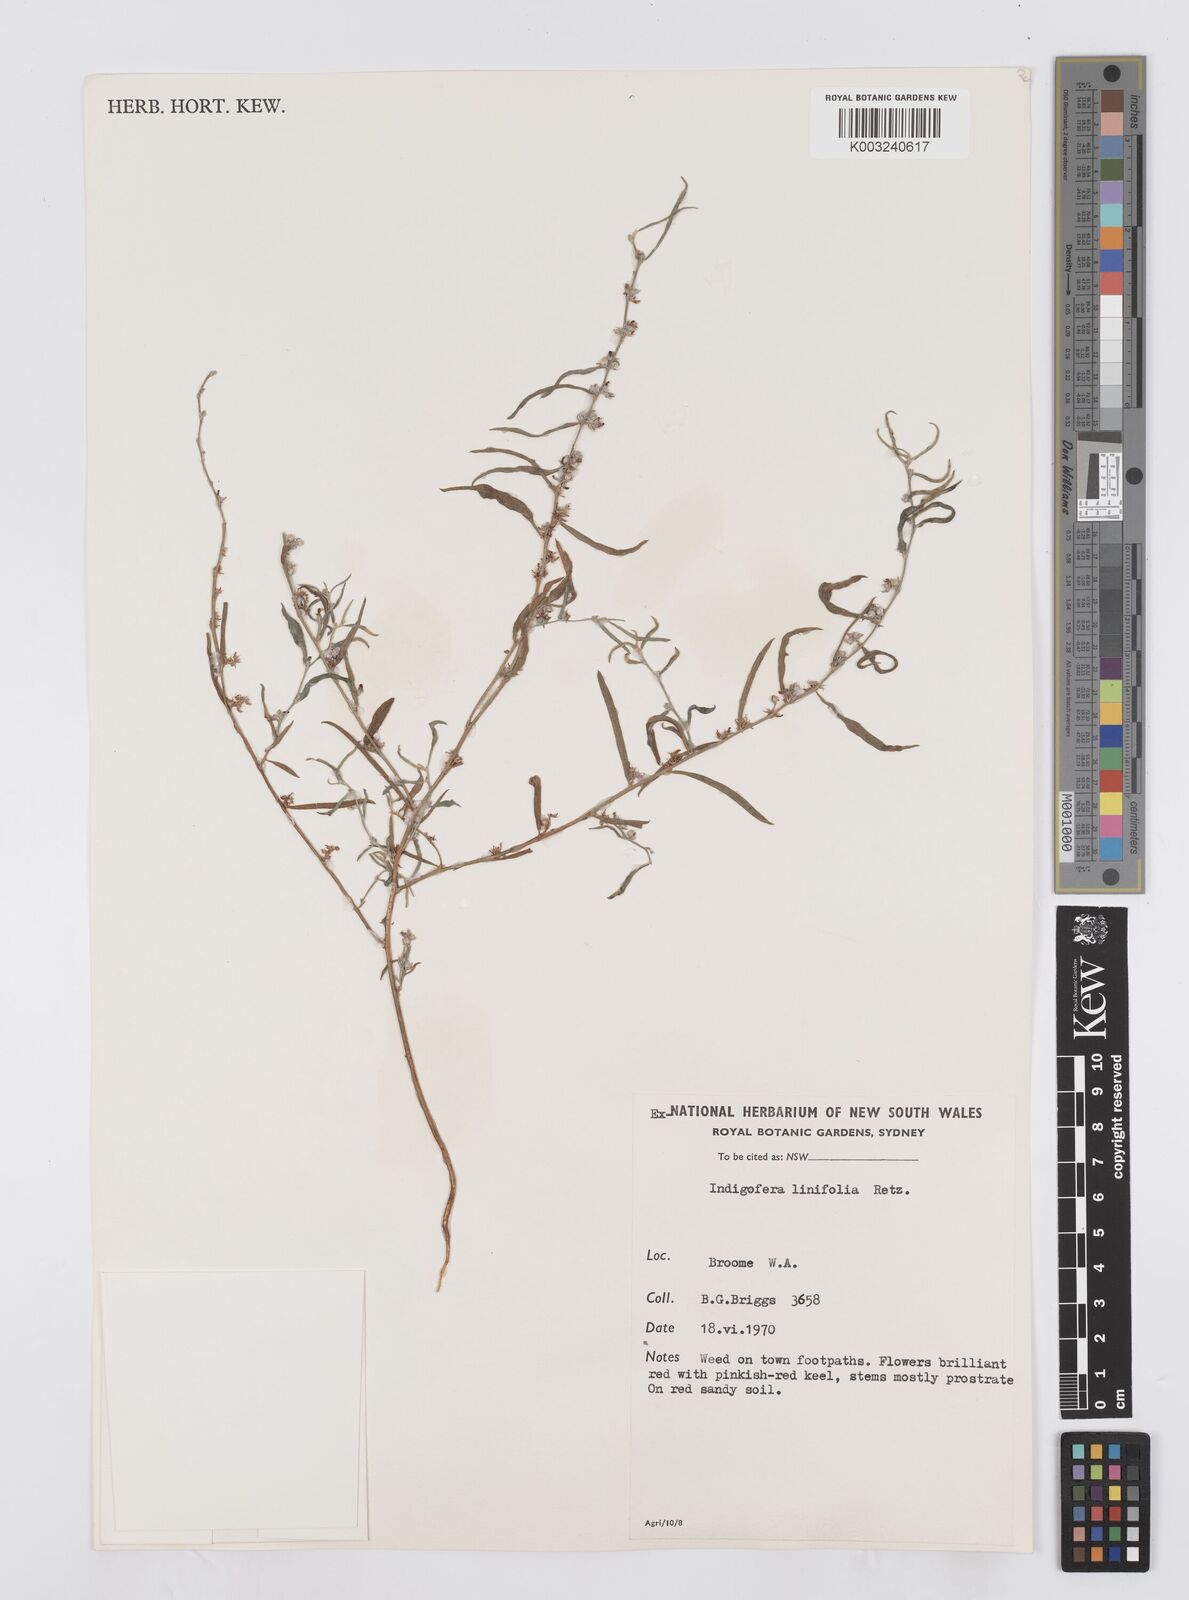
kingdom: Plantae
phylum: Tracheophyta
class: Magnoliopsida
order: Fabales
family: Fabaceae
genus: Indigofera
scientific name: Indigofera linifolia
